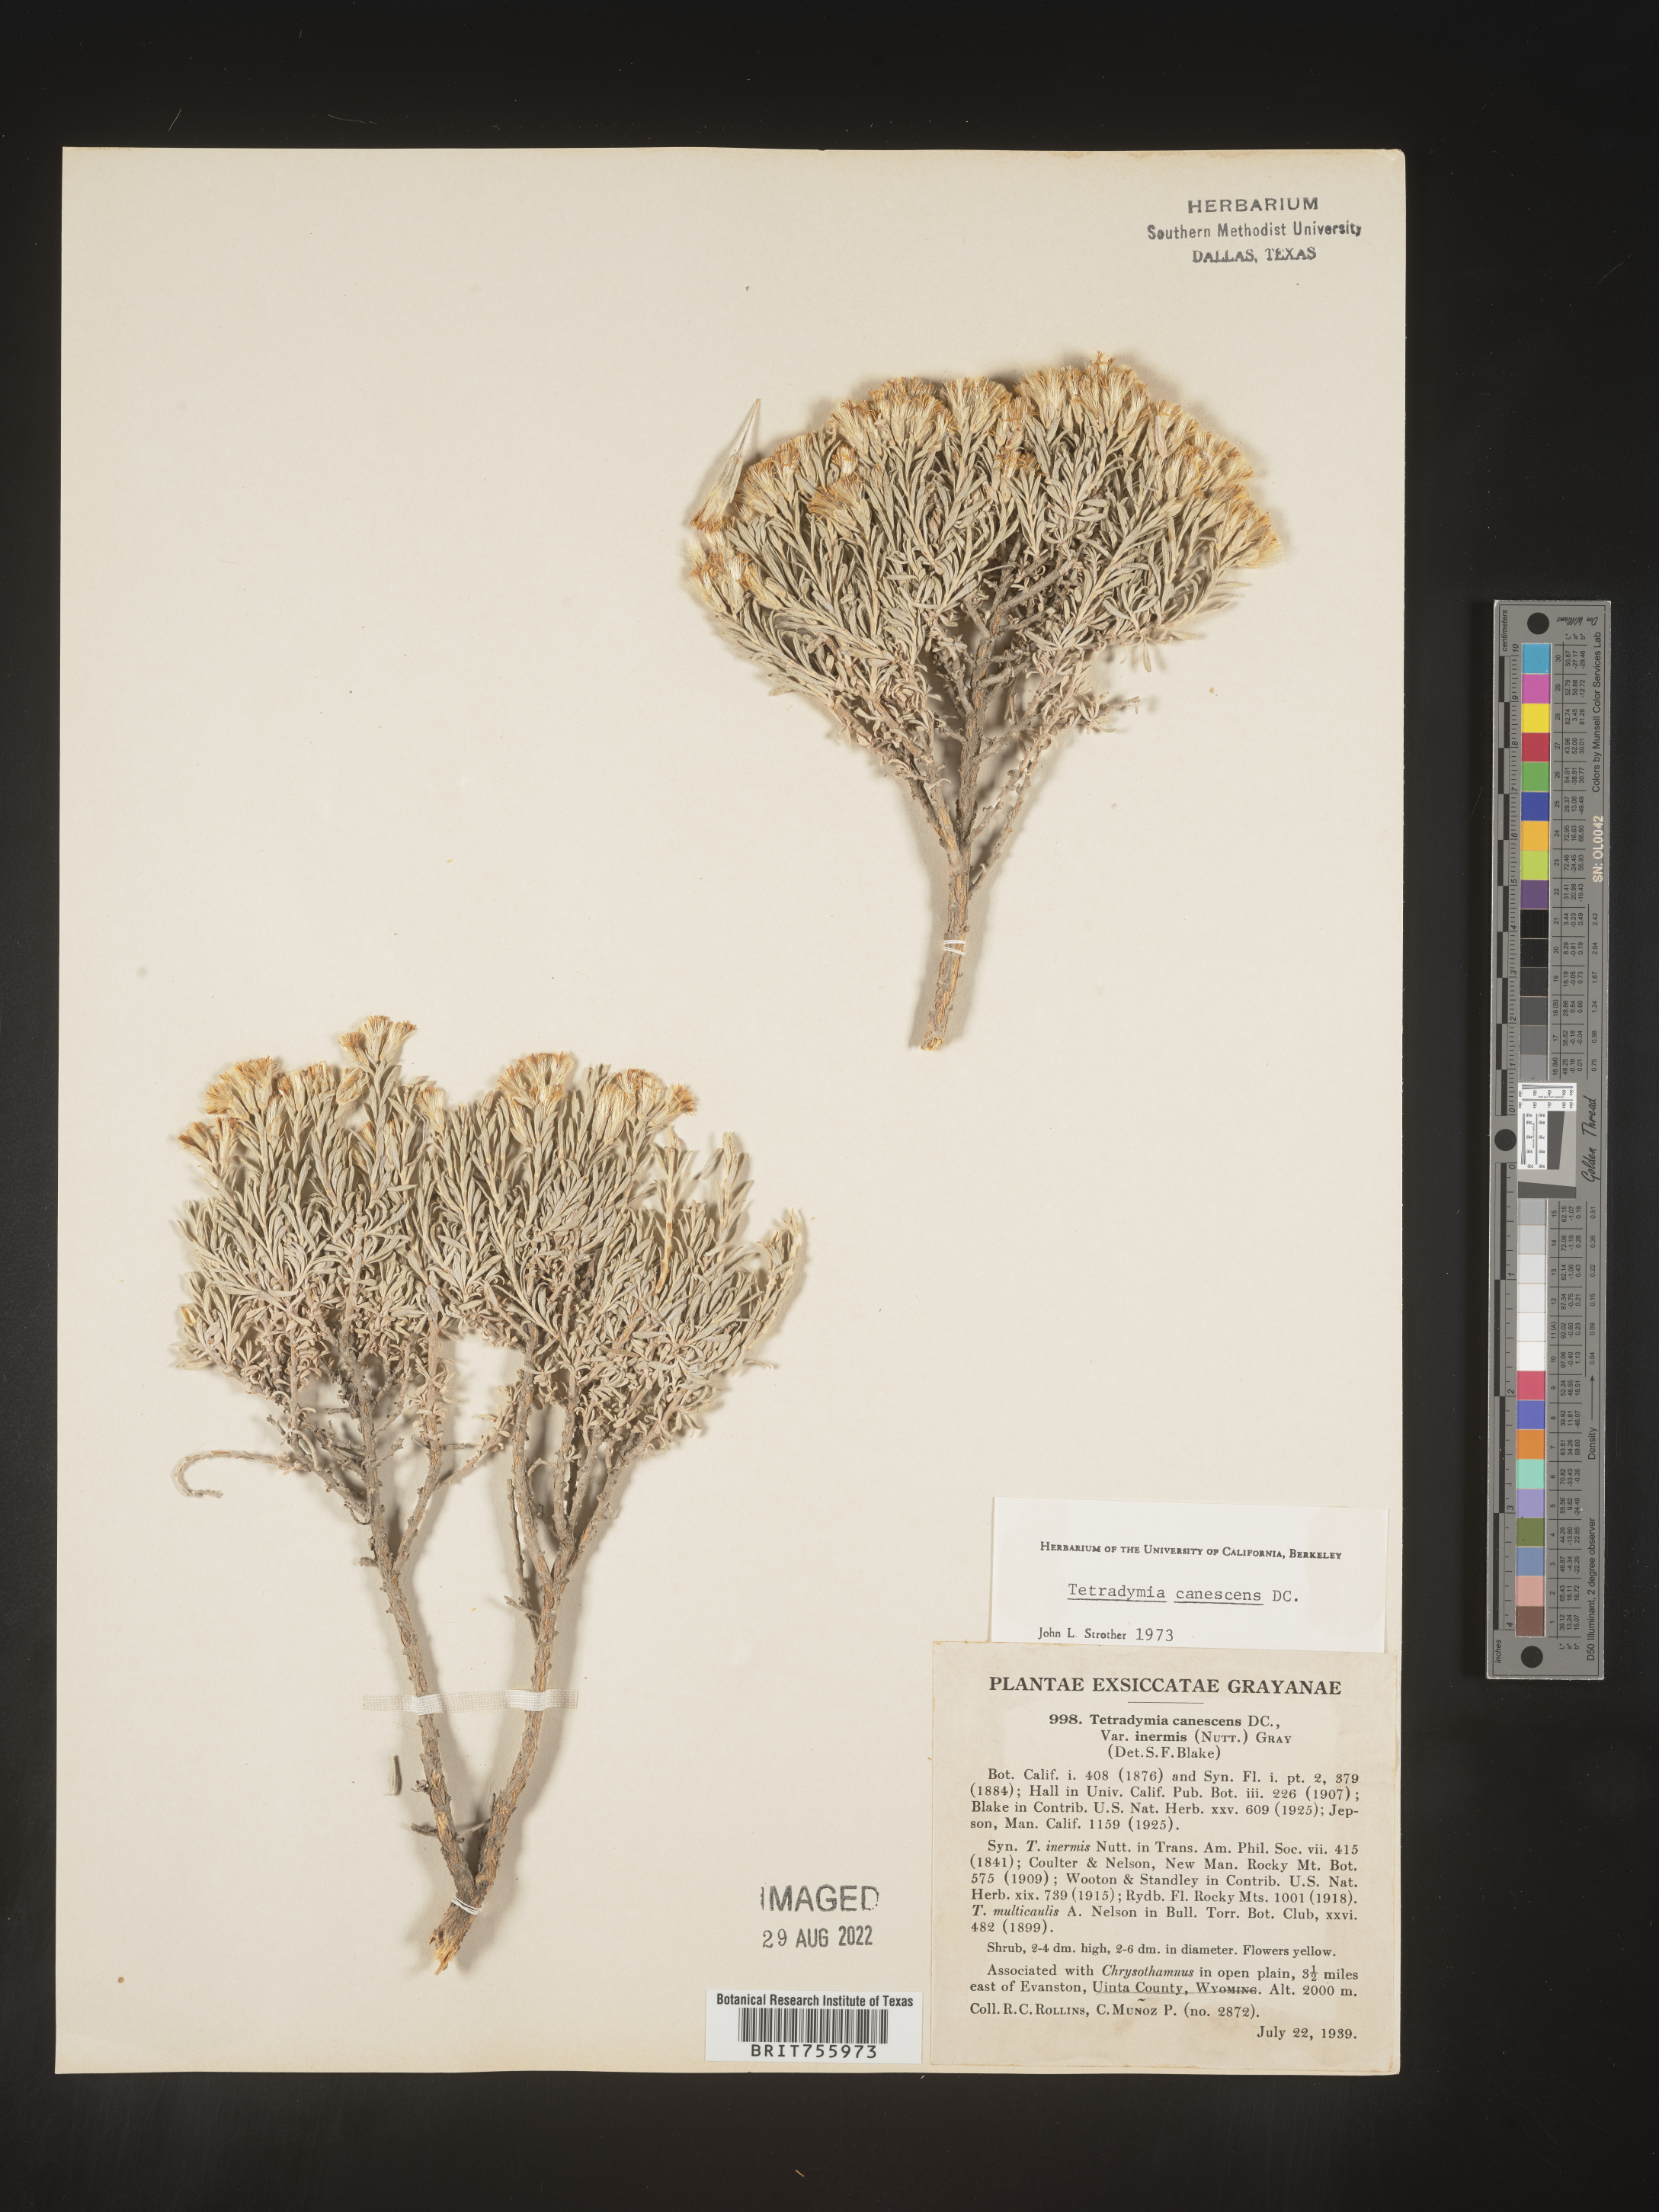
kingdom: Plantae
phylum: Tracheophyta
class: Magnoliopsida
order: Asterales
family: Asteraceae
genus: Tetradymia
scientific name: Tetradymia canescens
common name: Spineless horsebrush
